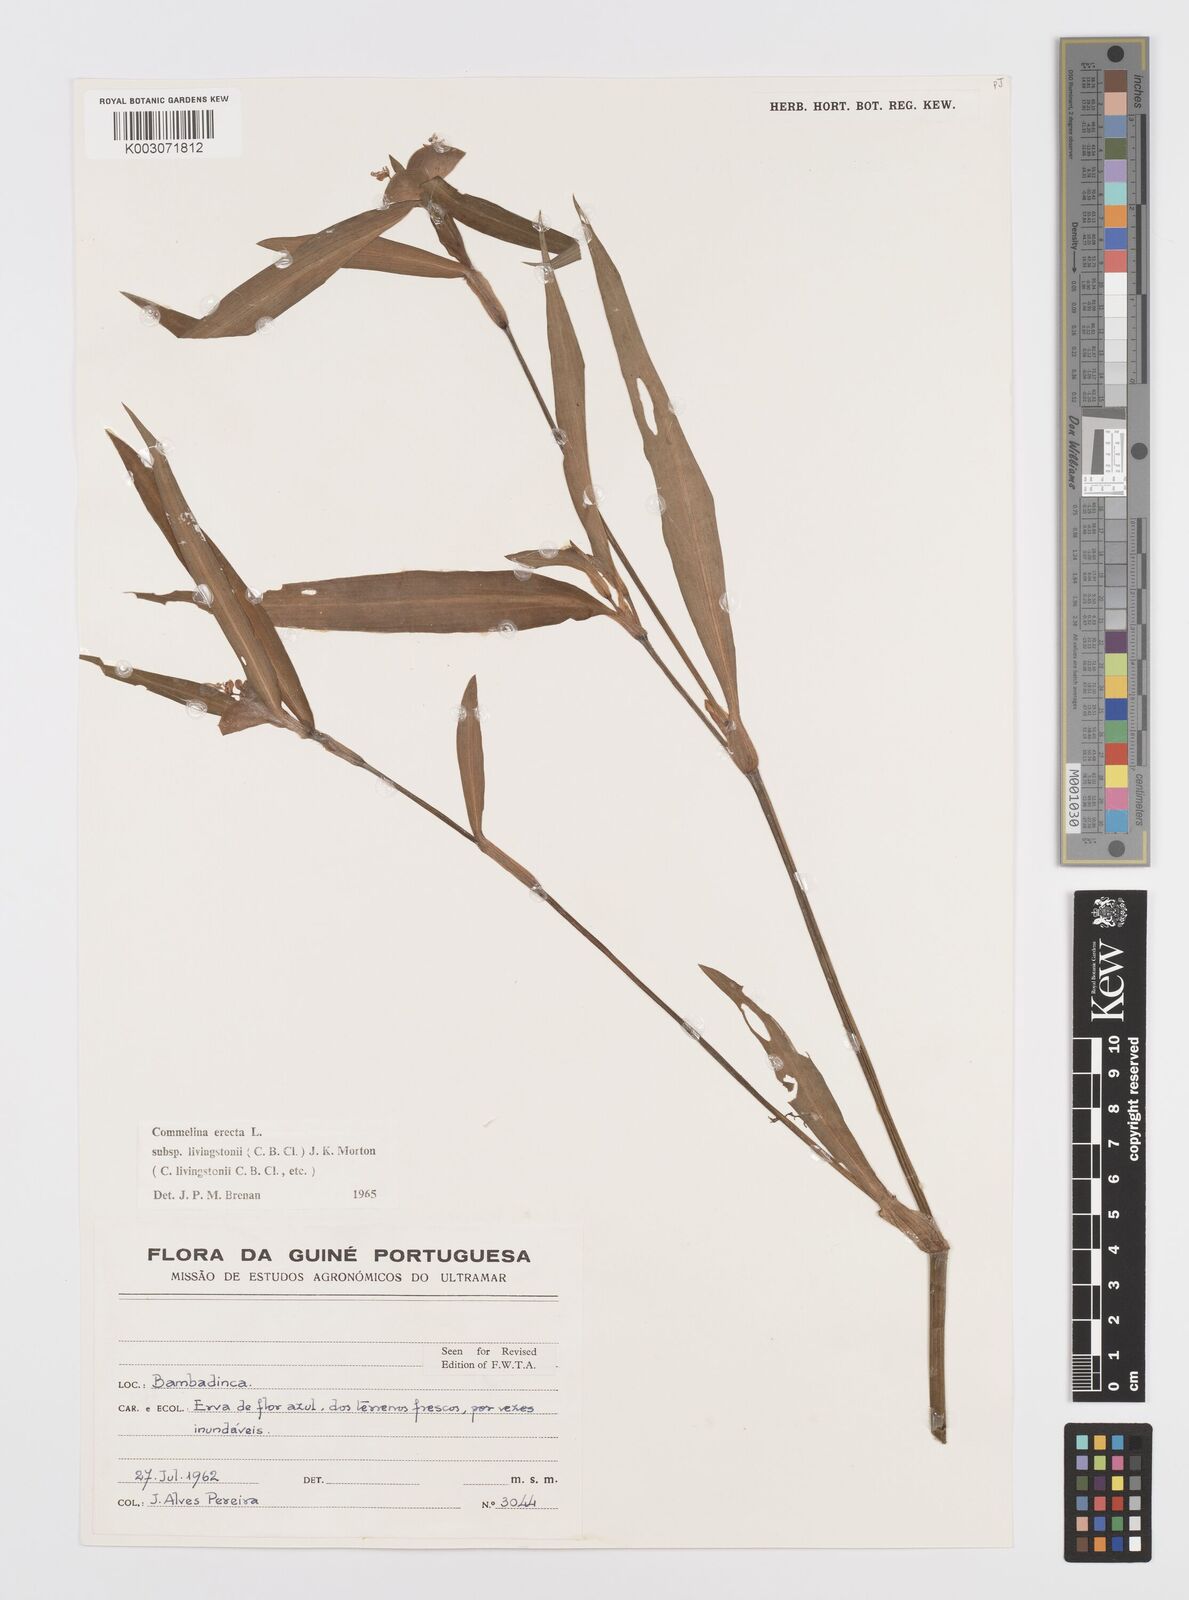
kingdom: Plantae
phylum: Tracheophyta
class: Liliopsida
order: Commelinales
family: Commelinaceae
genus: Commelina
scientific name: Commelina erecta
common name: Blousel blommetjie
